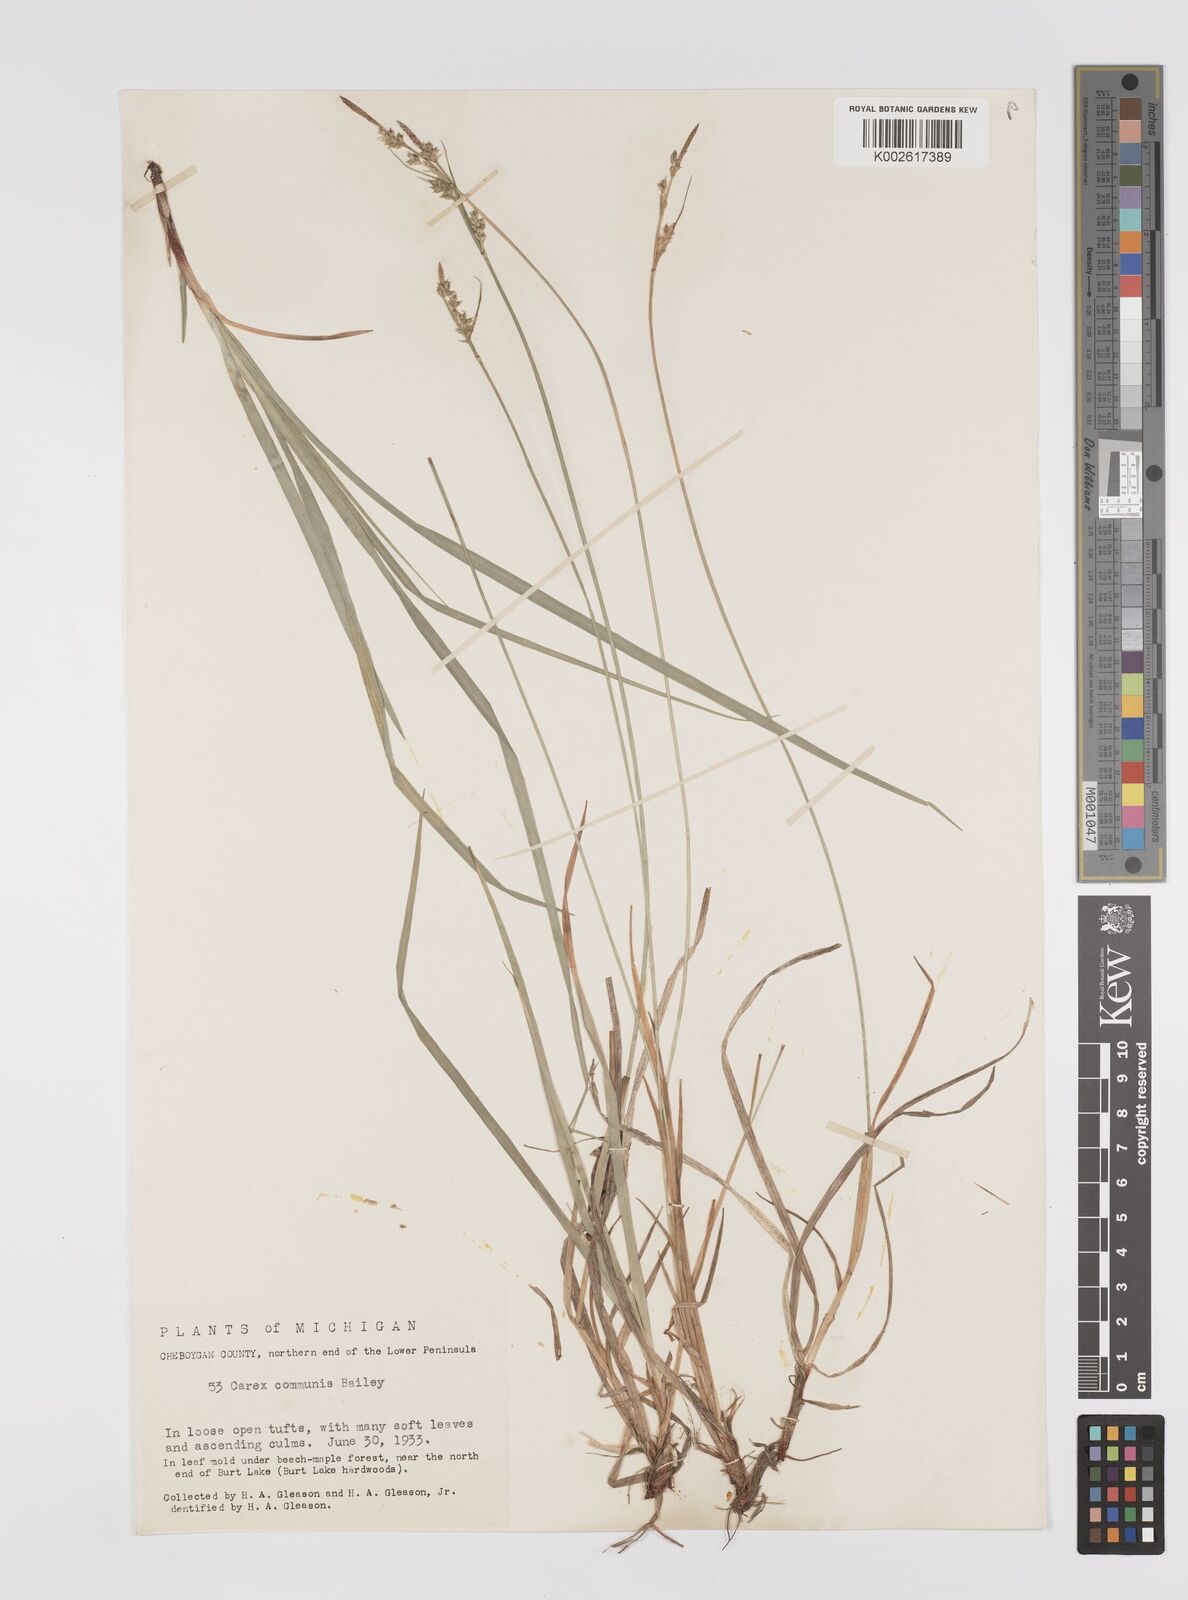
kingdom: Plantae
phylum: Tracheophyta
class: Liliopsida
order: Poales
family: Cyperaceae
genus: Carex
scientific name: Carex communis
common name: Colonial oak sedge
